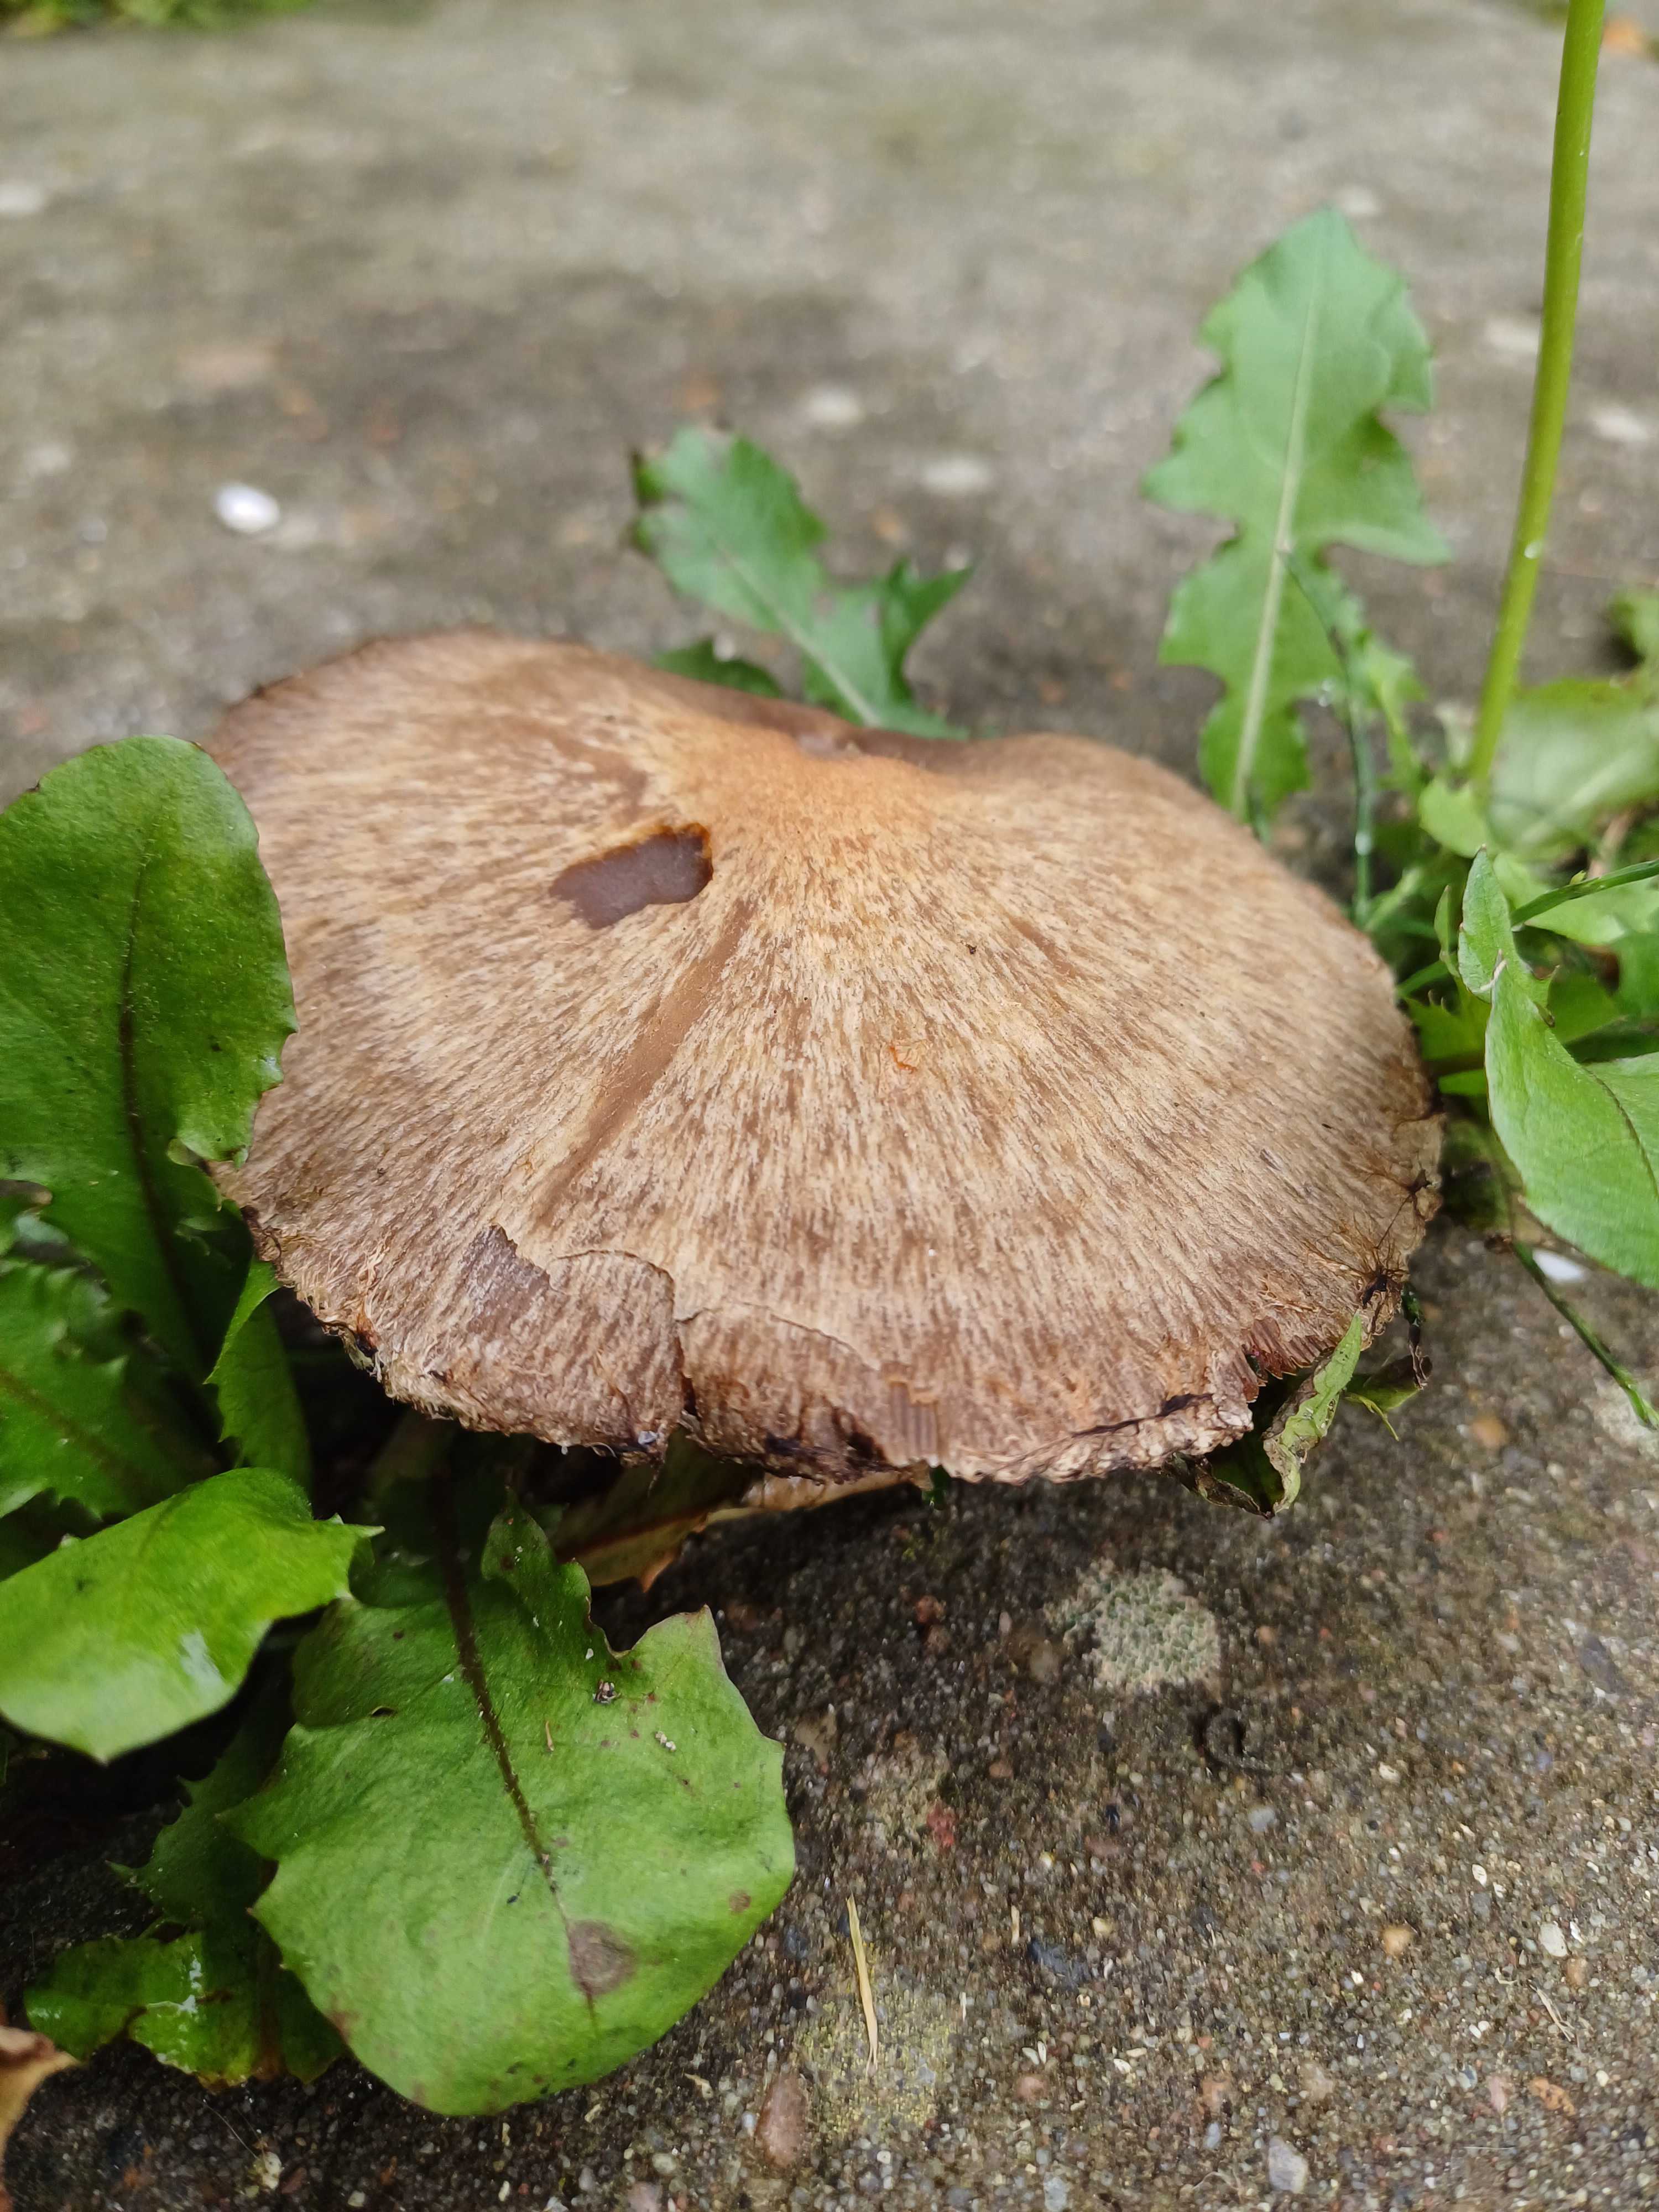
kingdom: Fungi
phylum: Basidiomycota
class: Agaricomycetes
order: Agaricales
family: Psathyrellaceae
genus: Lacrymaria
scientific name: Lacrymaria lacrymabunda
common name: grædende mørkhat
